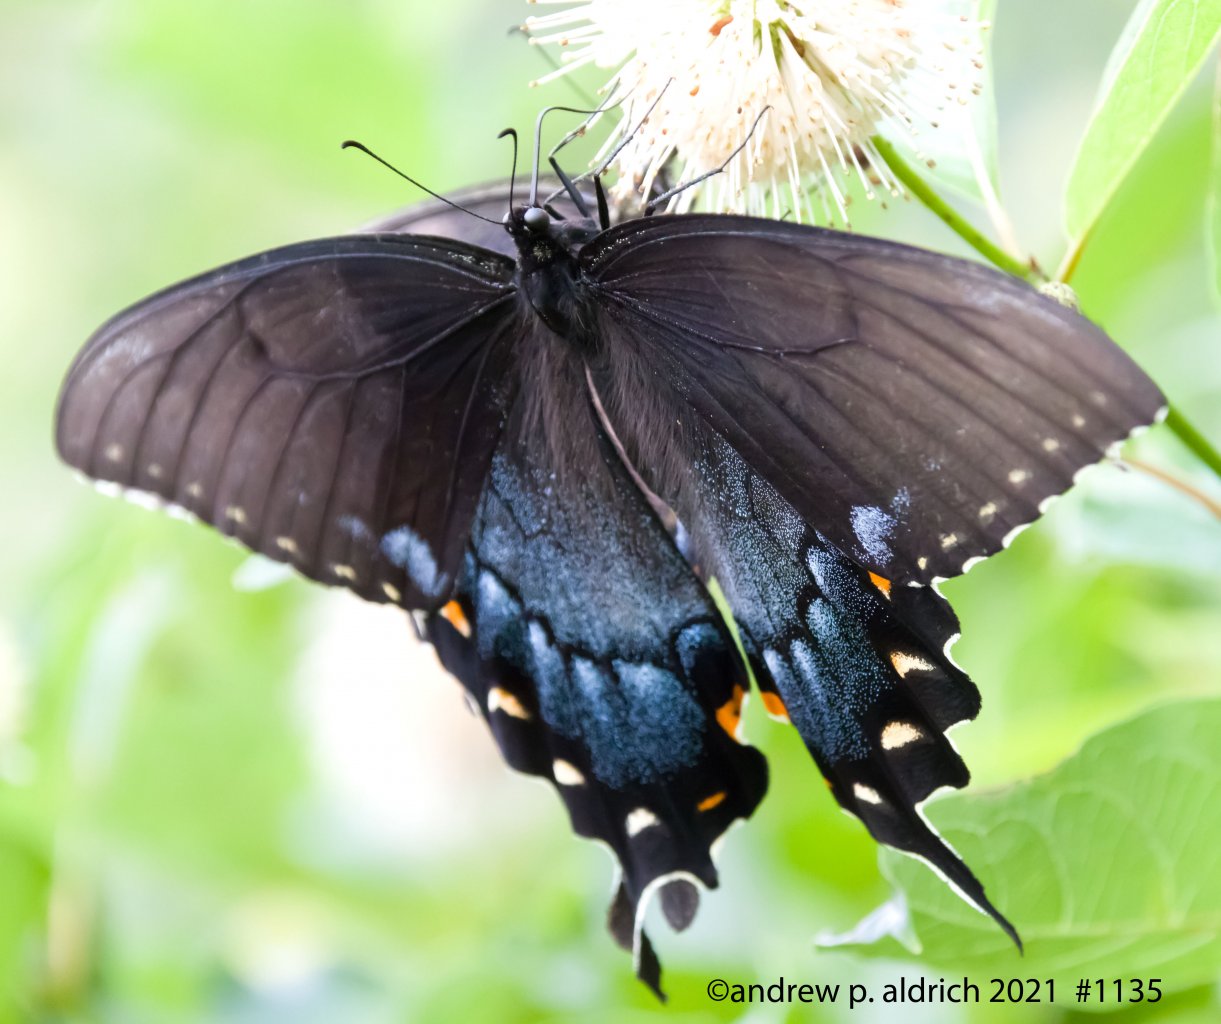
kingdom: Animalia
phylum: Arthropoda
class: Insecta
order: Lepidoptera
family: Papilionidae
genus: Pterourus
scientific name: Pterourus glaucus
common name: Eastern Tiger Swallowtail
